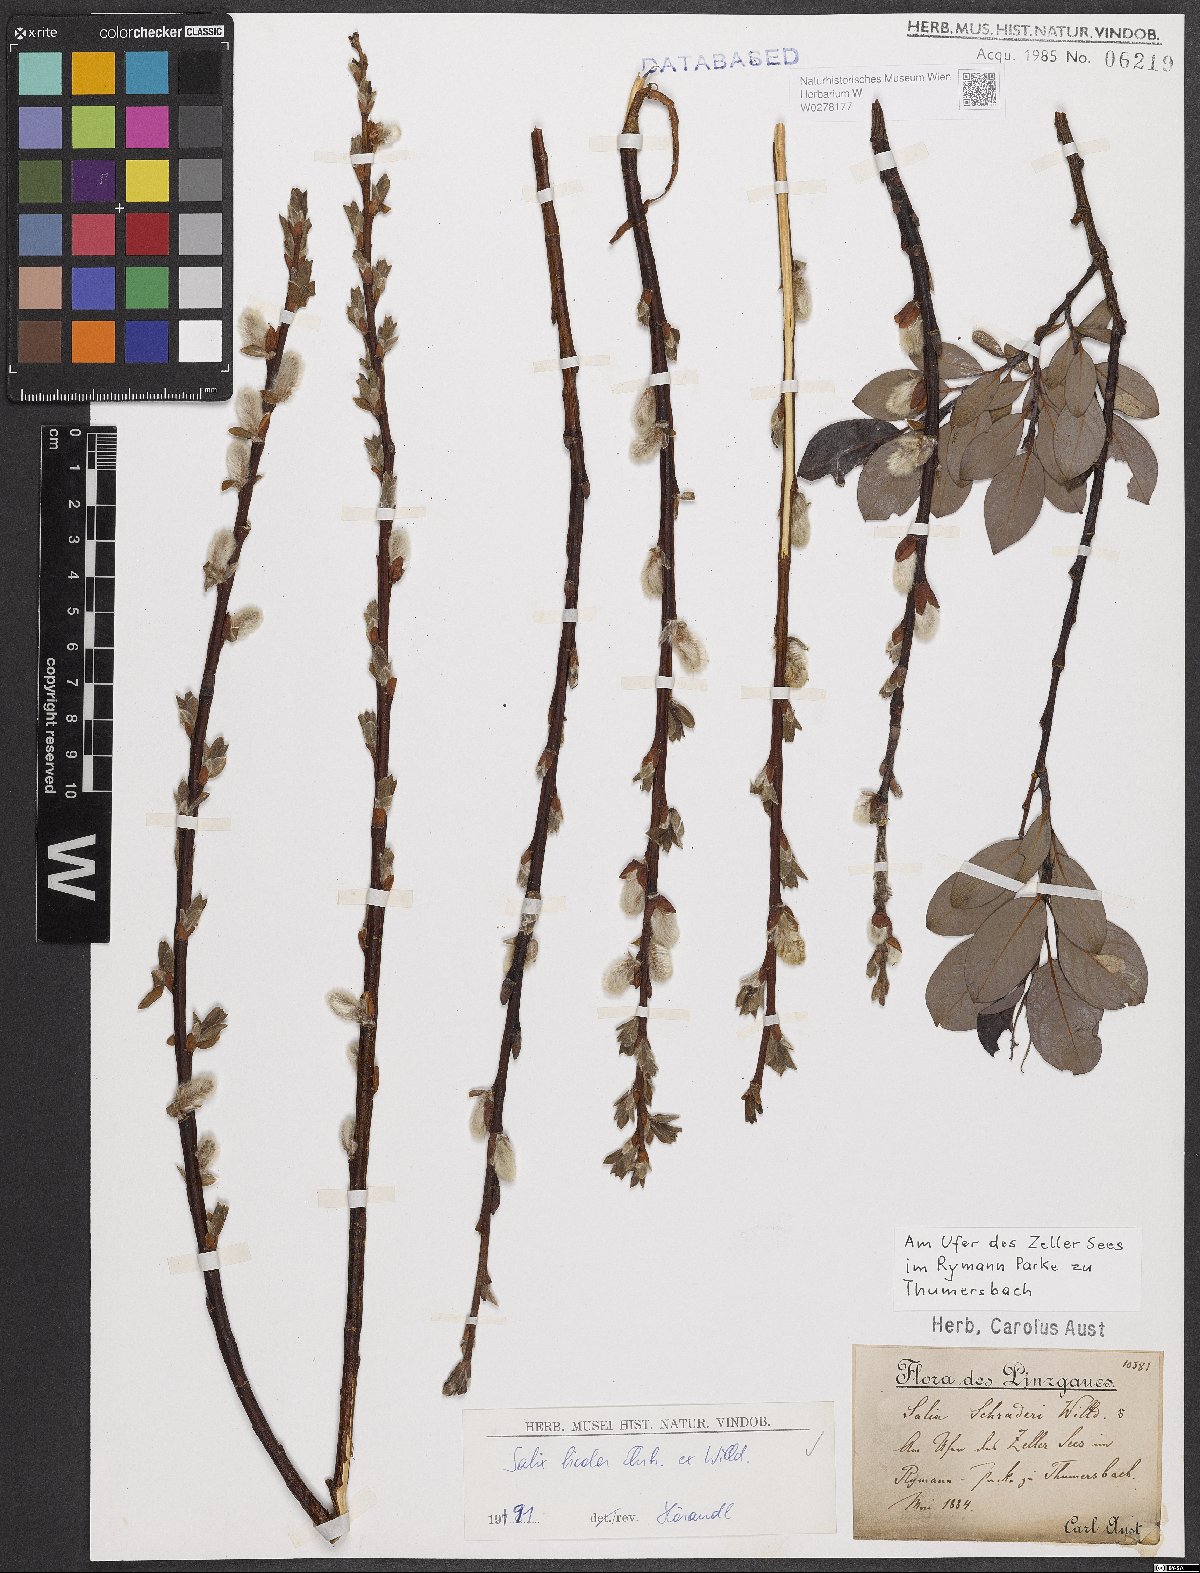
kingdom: Plantae
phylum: Tracheophyta
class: Magnoliopsida
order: Malpighiales
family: Salicaceae
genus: Salix
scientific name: Salix bicolor
